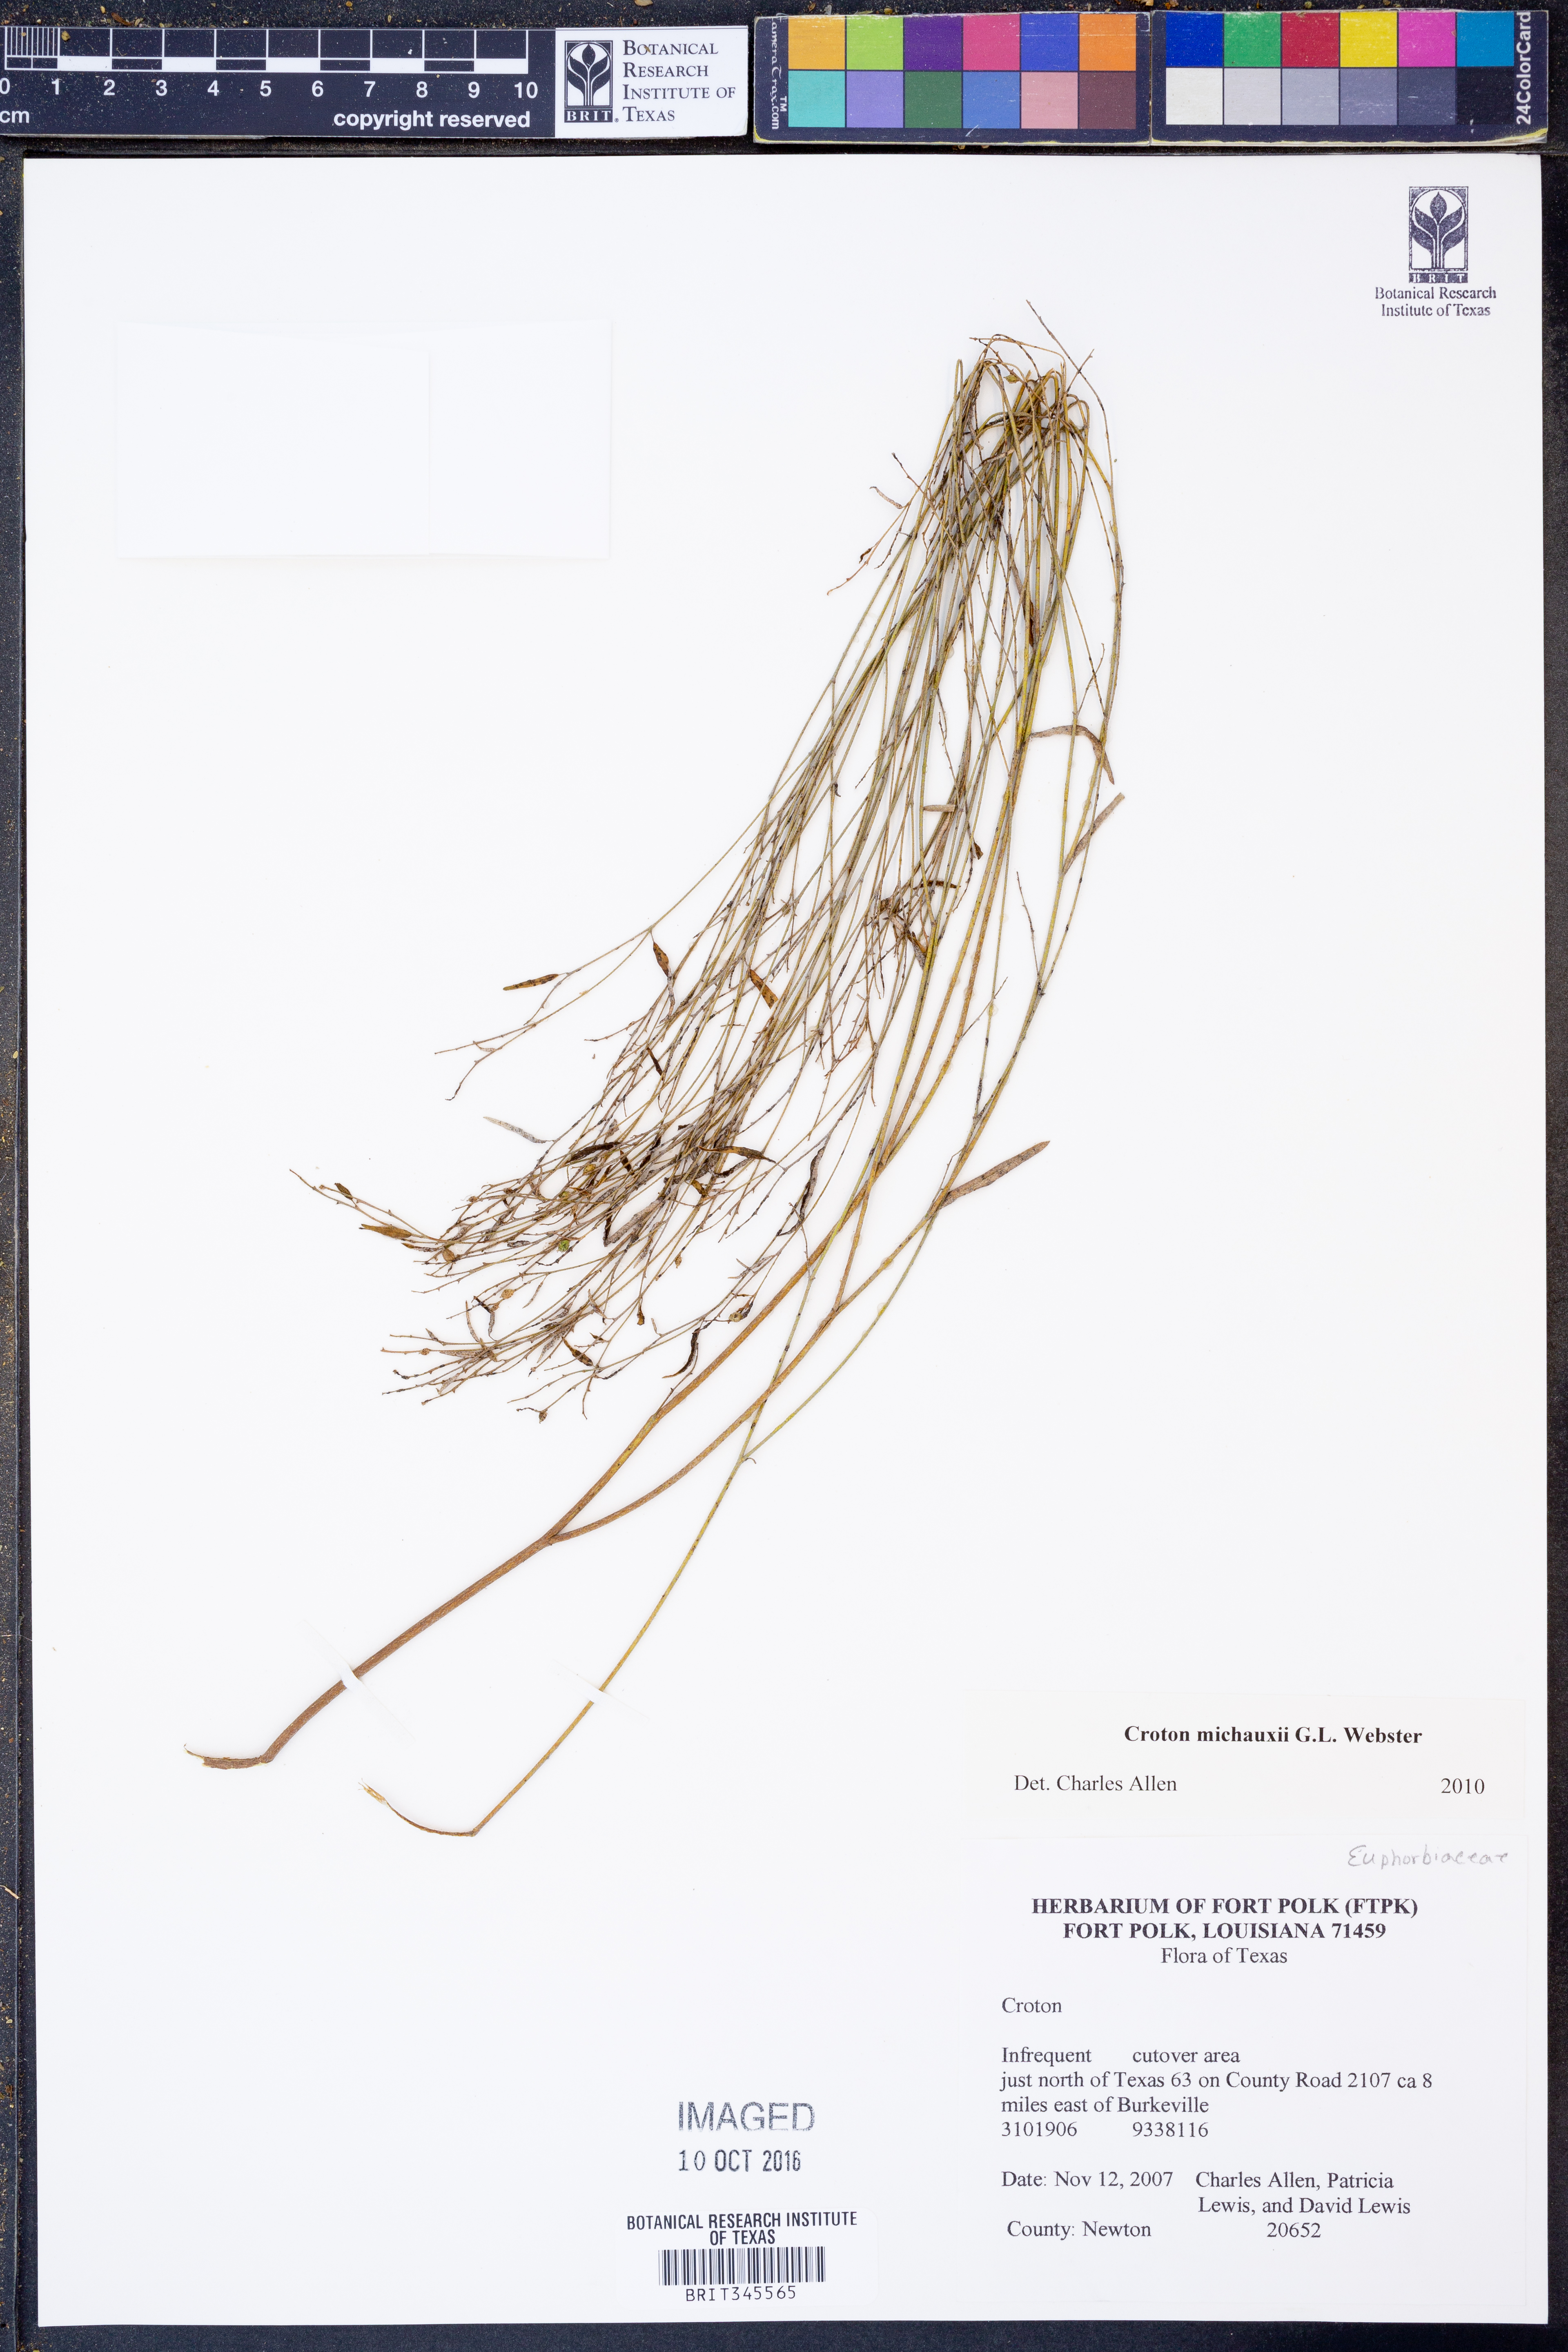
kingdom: Plantae
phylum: Tracheophyta
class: Magnoliopsida
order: Malpighiales
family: Euphorbiaceae
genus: Croton
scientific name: Croton michauxii
